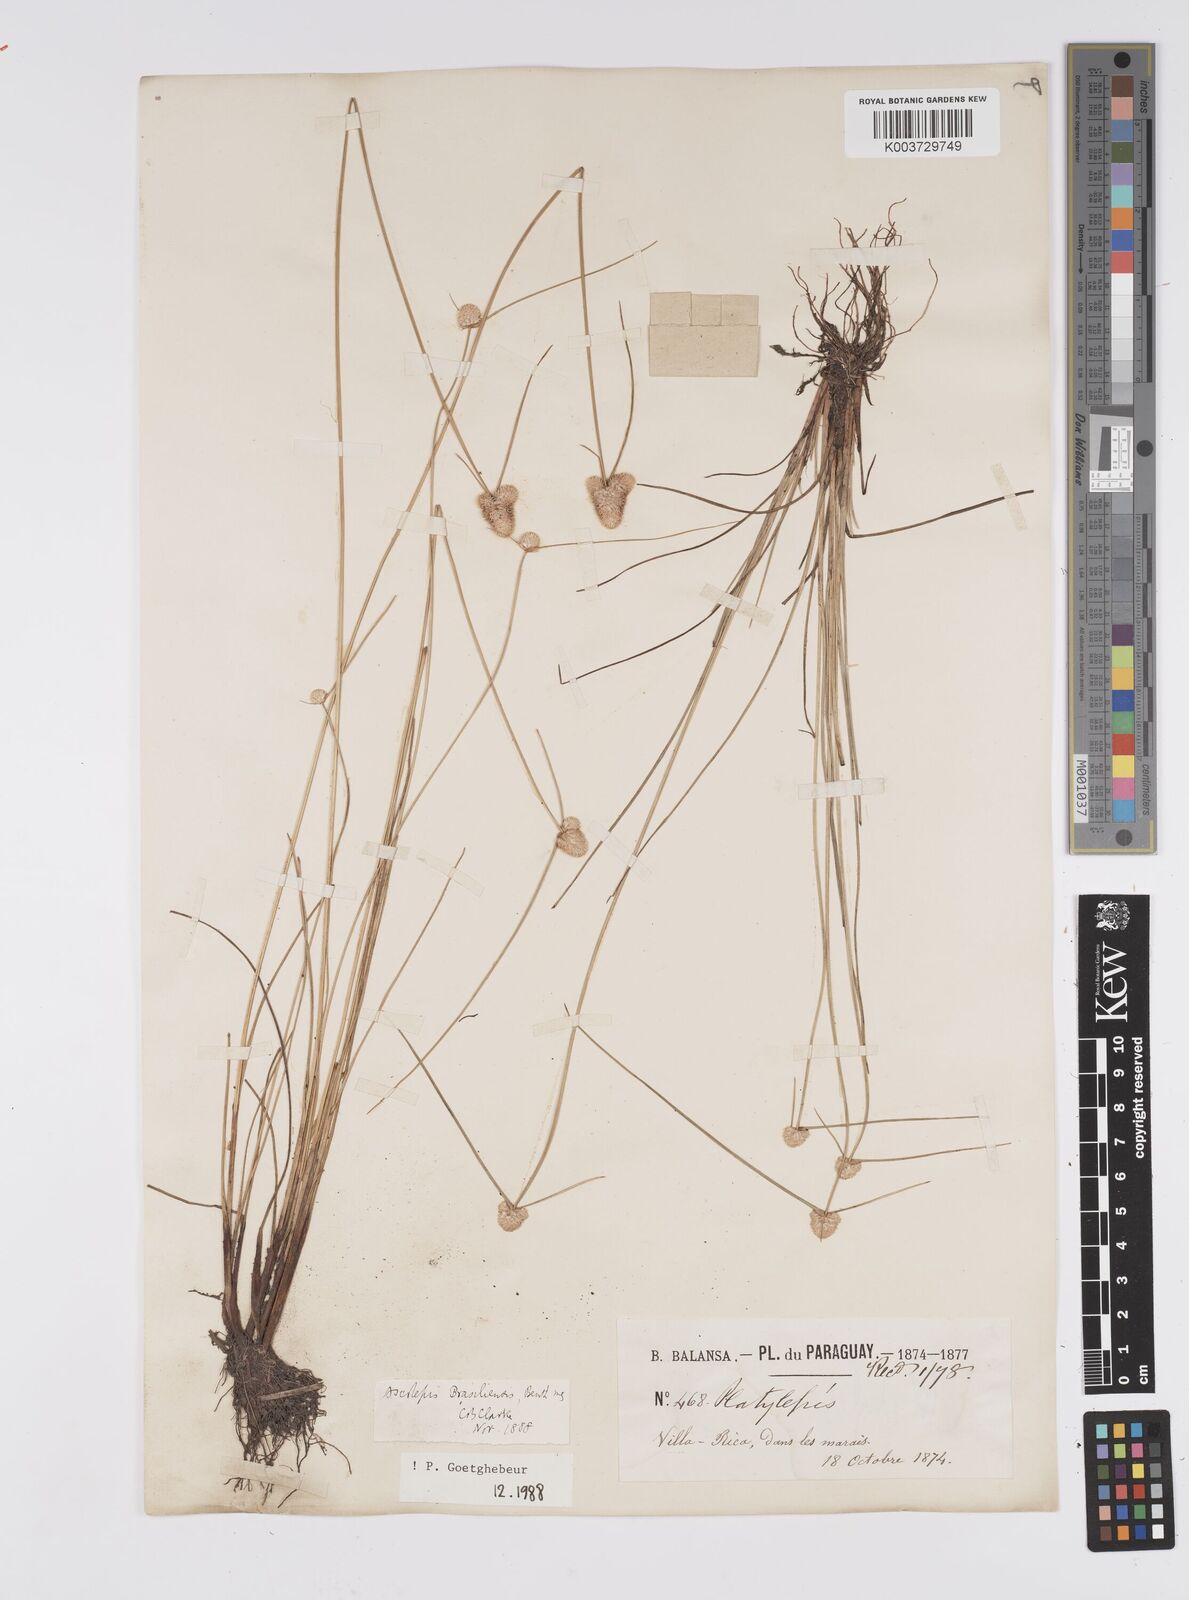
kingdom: Plantae
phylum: Tracheophyta
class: Liliopsida
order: Poales
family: Cyperaceae
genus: Cyperus
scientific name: Cyperus brasiliensis
